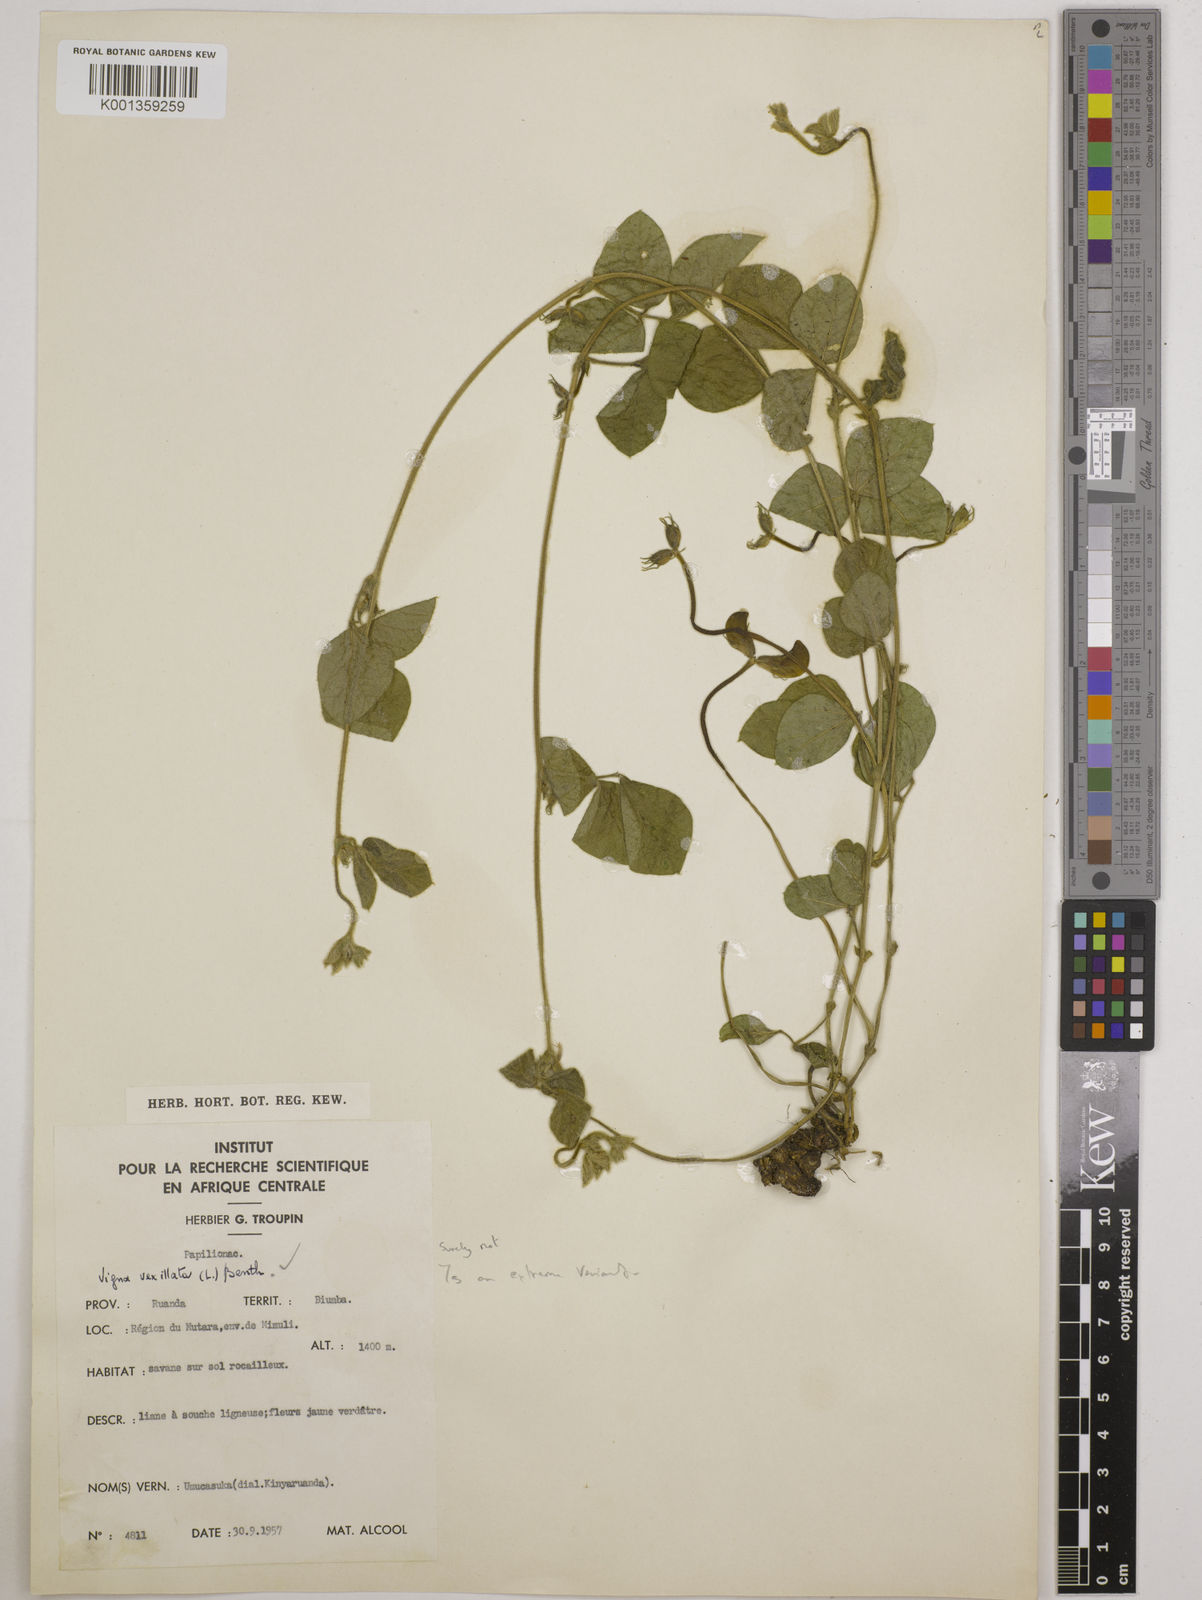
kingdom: Plantae
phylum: Tracheophyta
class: Magnoliopsida
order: Fabales
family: Fabaceae
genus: Vigna
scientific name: Vigna vexillata
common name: Zombi pea
